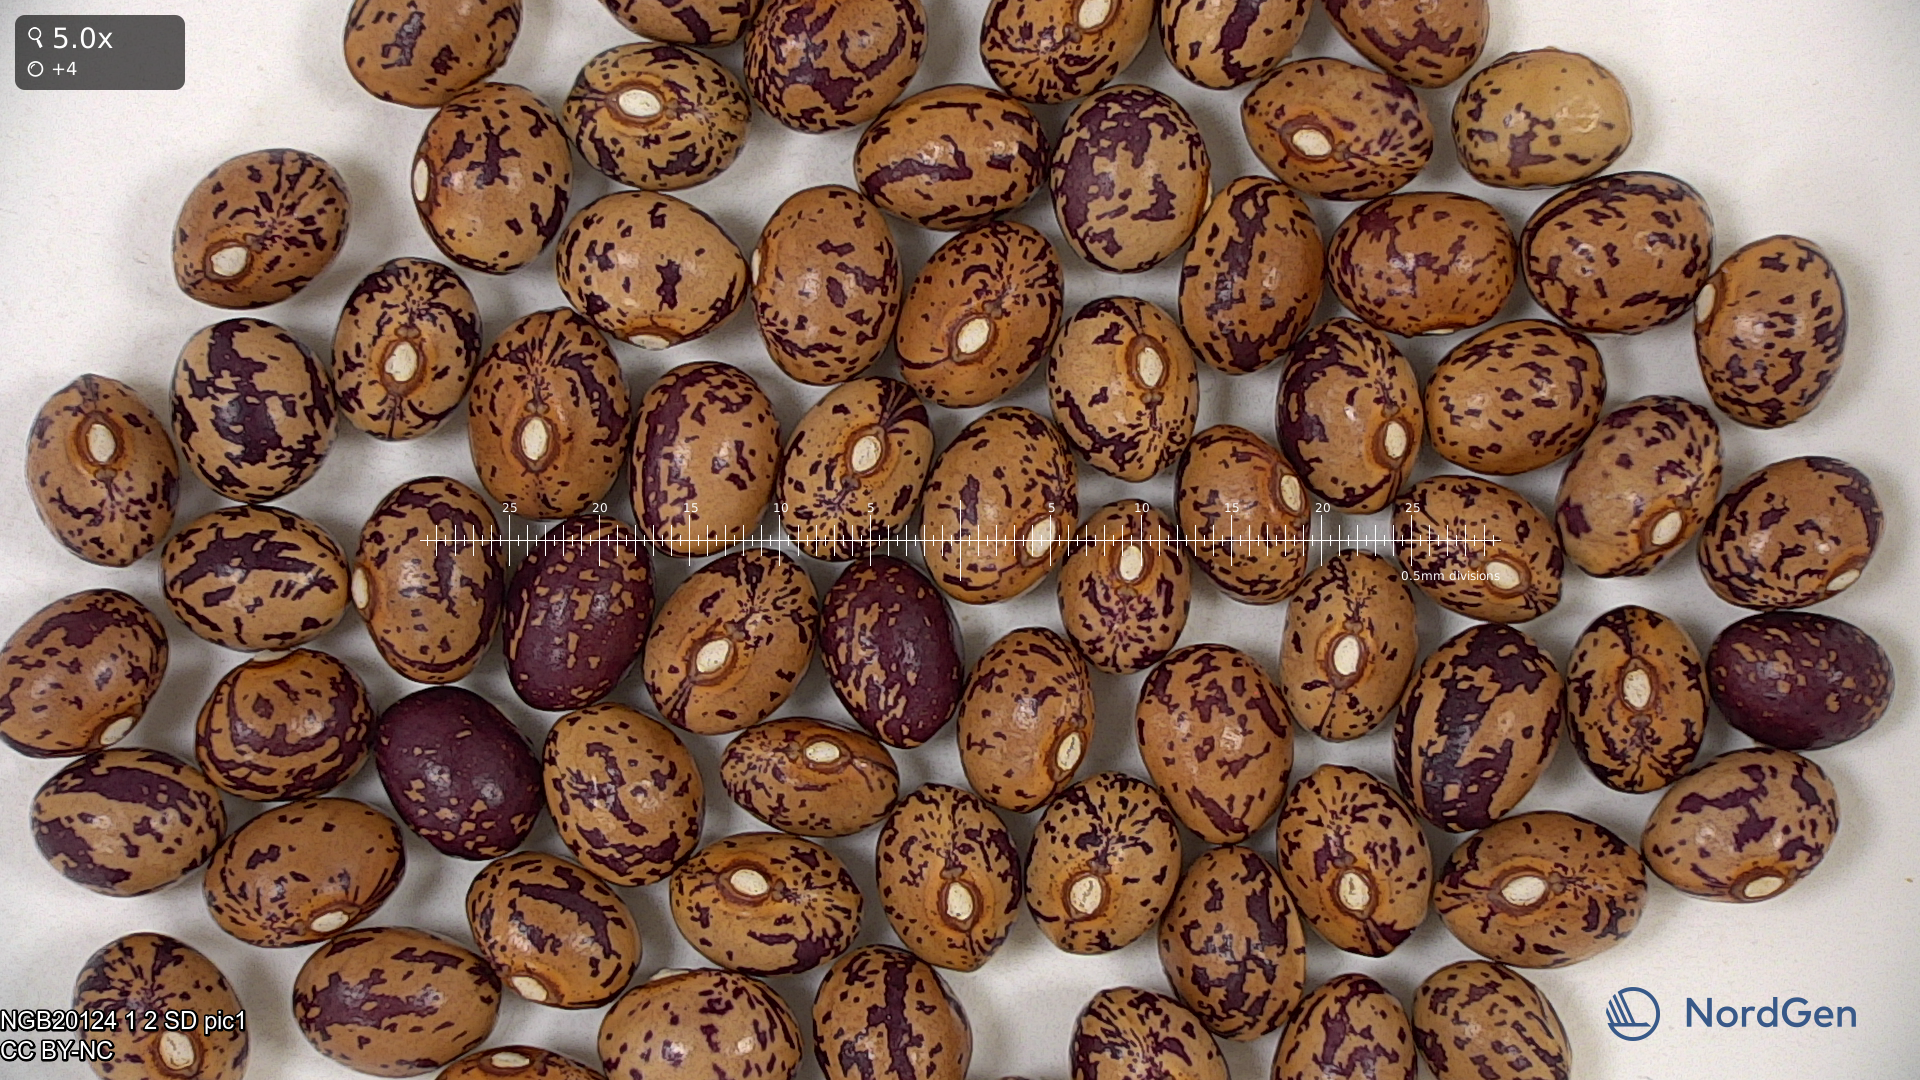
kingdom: Plantae
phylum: Tracheophyta
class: Magnoliopsida
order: Fabales
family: Fabaceae
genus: Phaseolus
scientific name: Phaseolus vulgaris
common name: Bean
